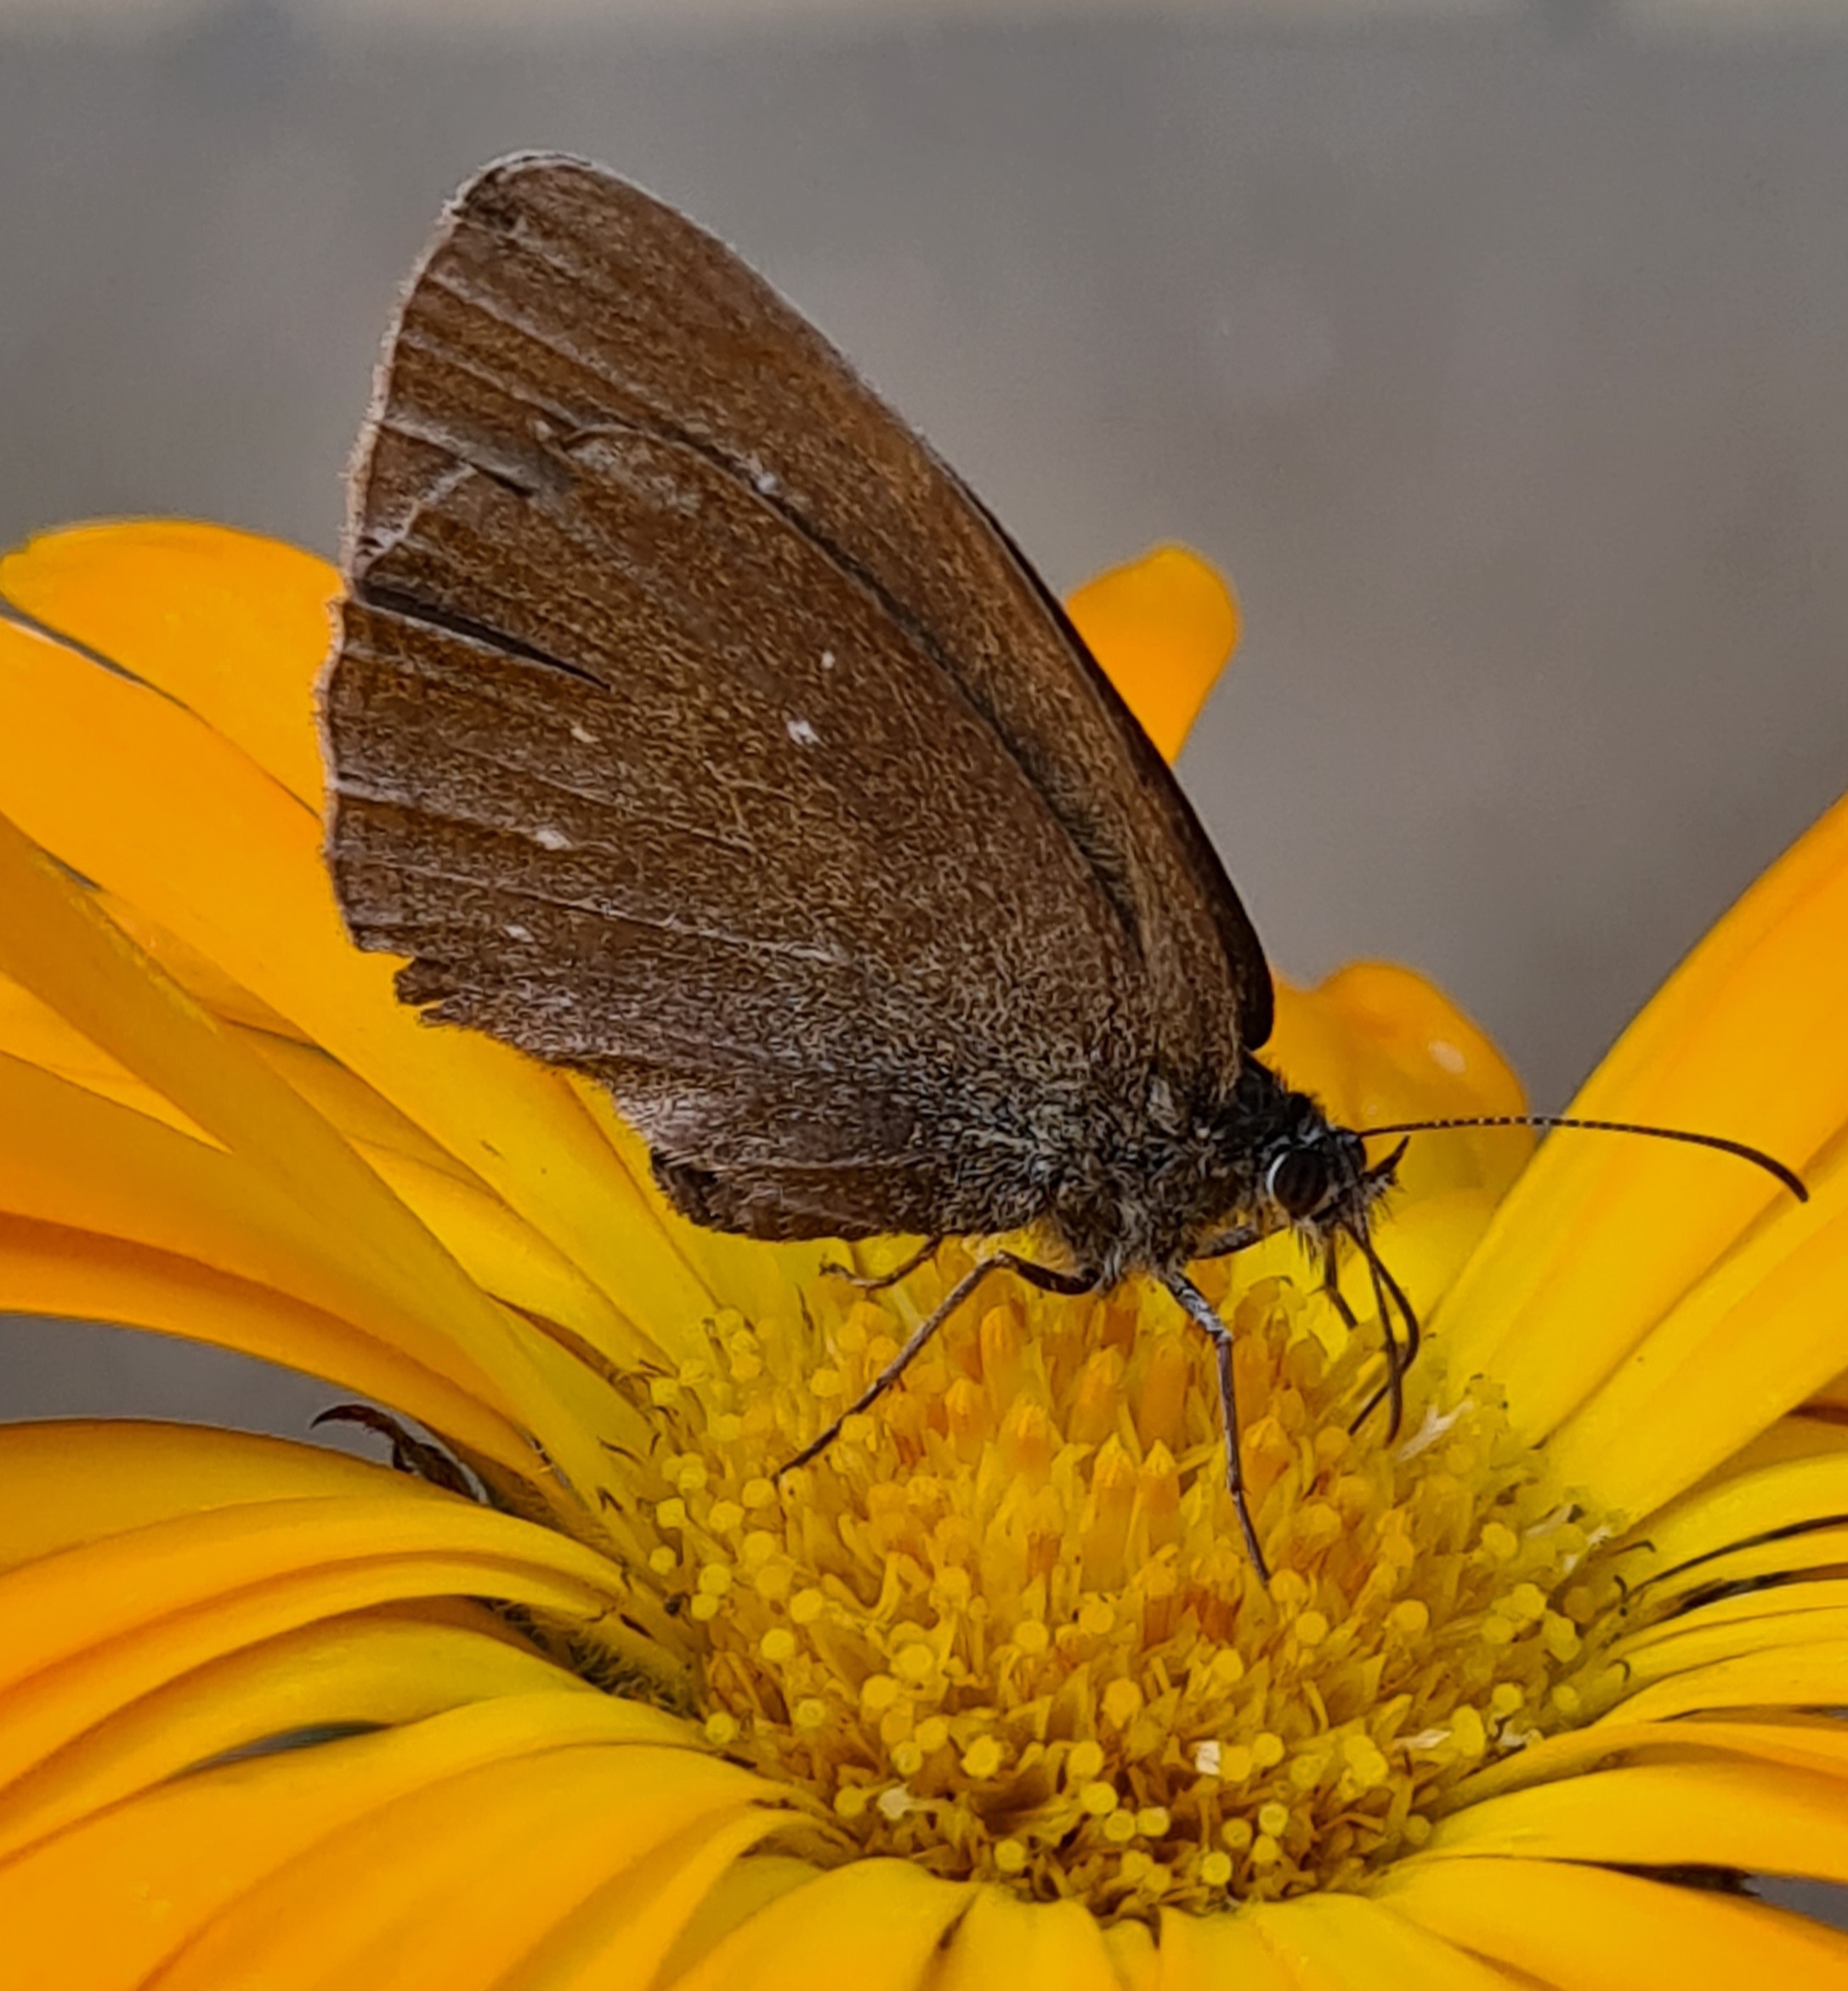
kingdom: Animalia
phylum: Arthropoda
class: Insecta
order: Lepidoptera
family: Nymphalidae
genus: Aphantopus
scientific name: Aphantopus hyperantus
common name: Engrandøje
